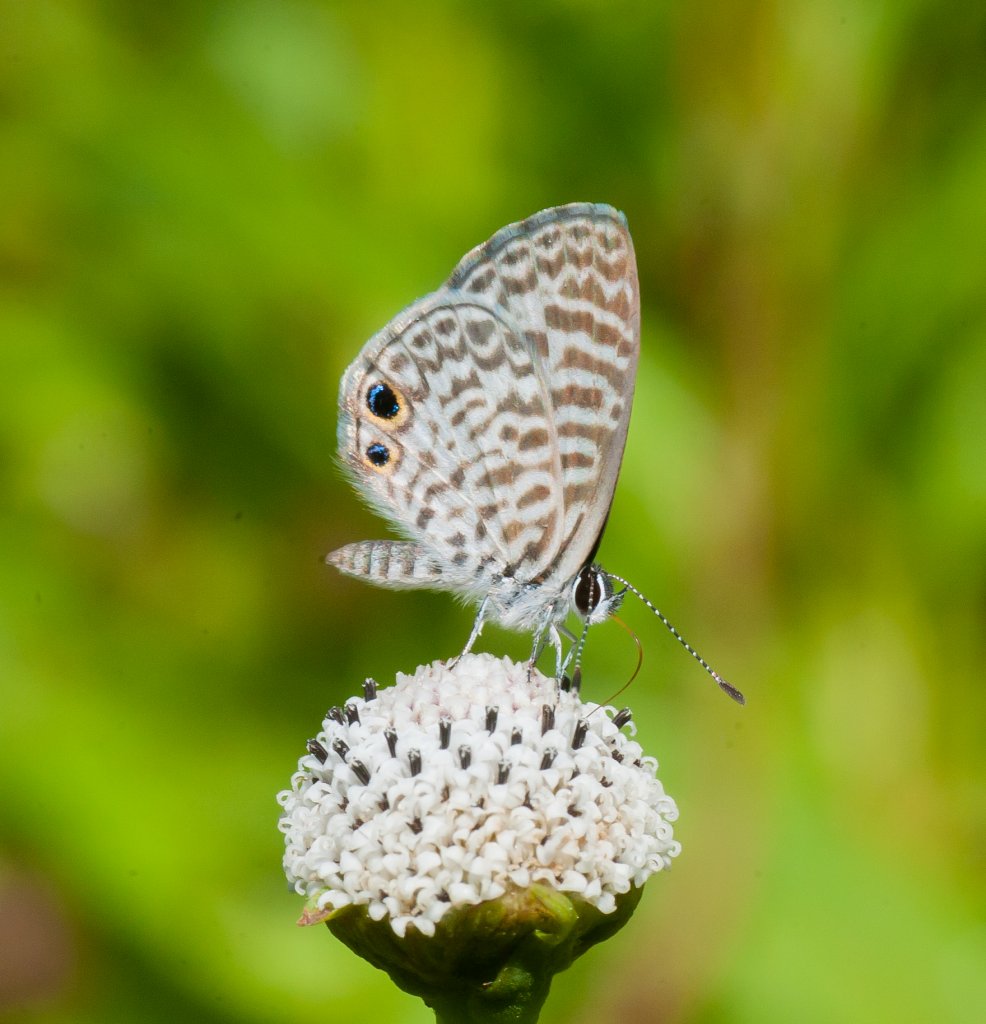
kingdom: Animalia
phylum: Arthropoda
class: Insecta
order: Lepidoptera
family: Lycaenidae
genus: Leptotes
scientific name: Leptotes cassius
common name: Cassius Blue
